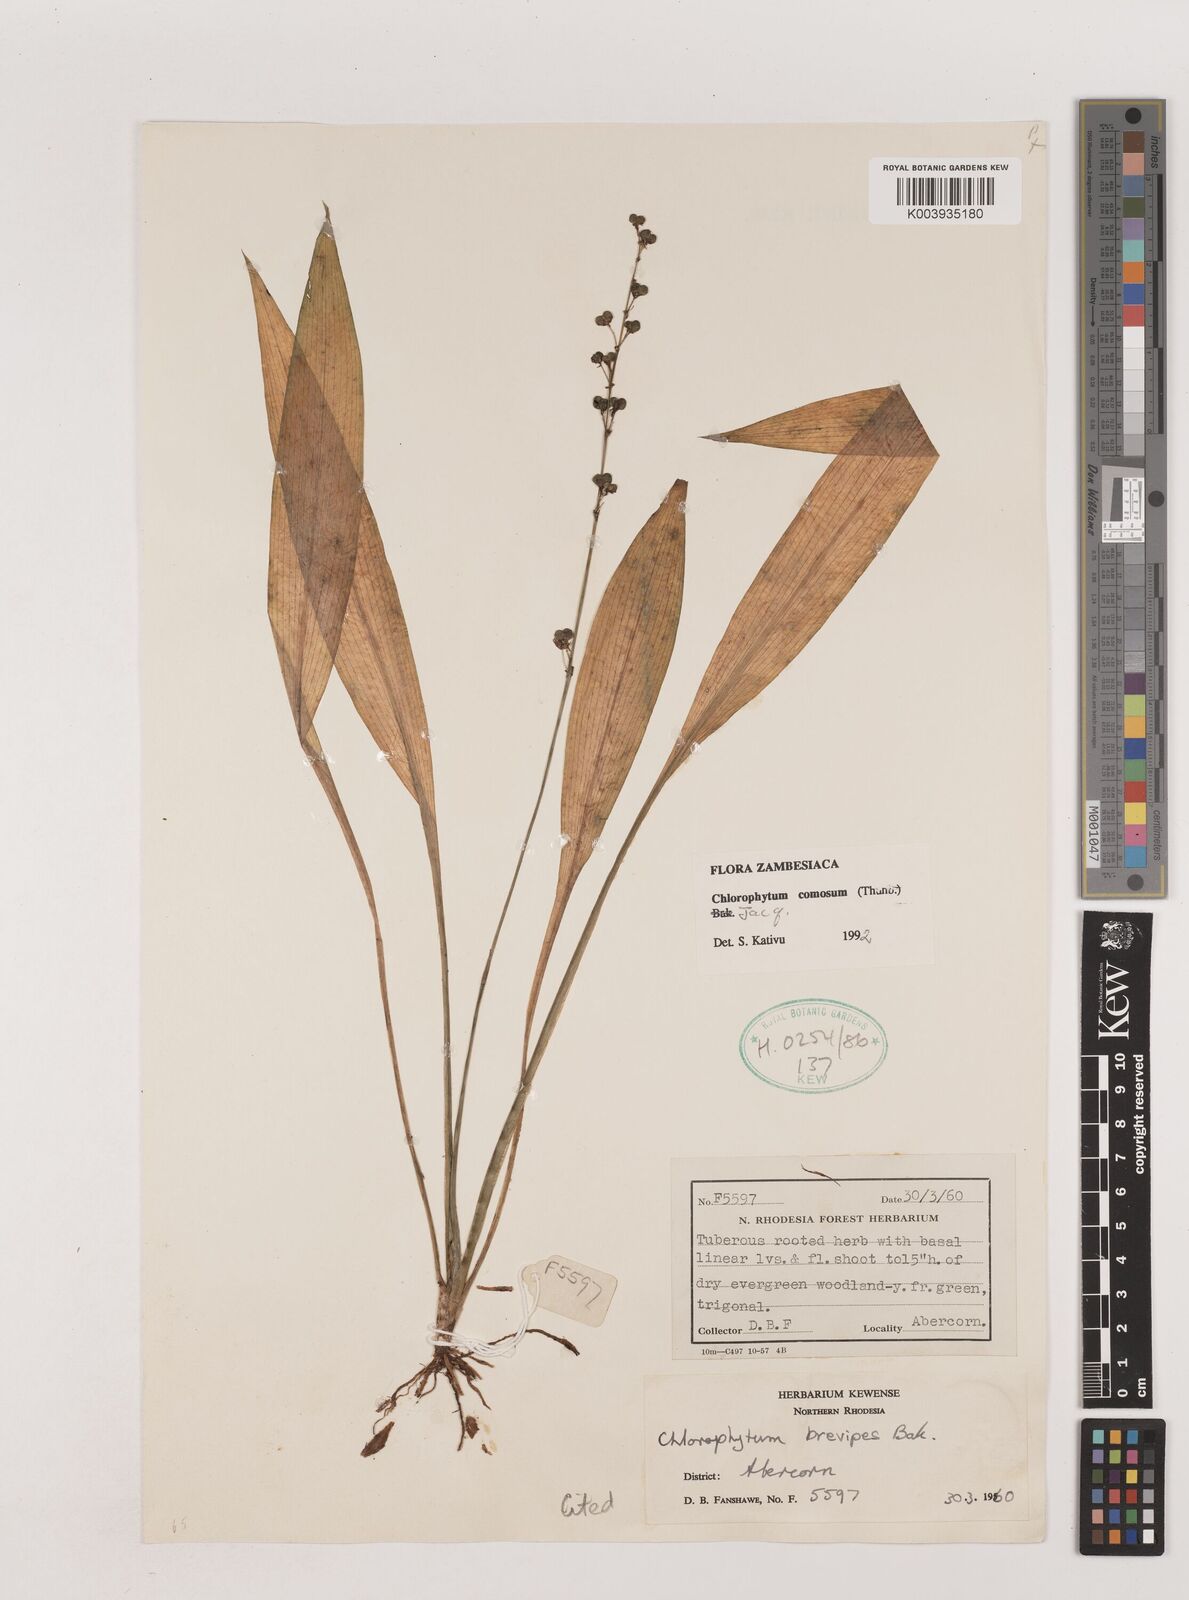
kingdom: Plantae
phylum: Tracheophyta
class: Liliopsida
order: Asparagales
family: Asparagaceae
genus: Chlorophytum
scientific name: Chlorophytum comosum
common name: Spider plant
